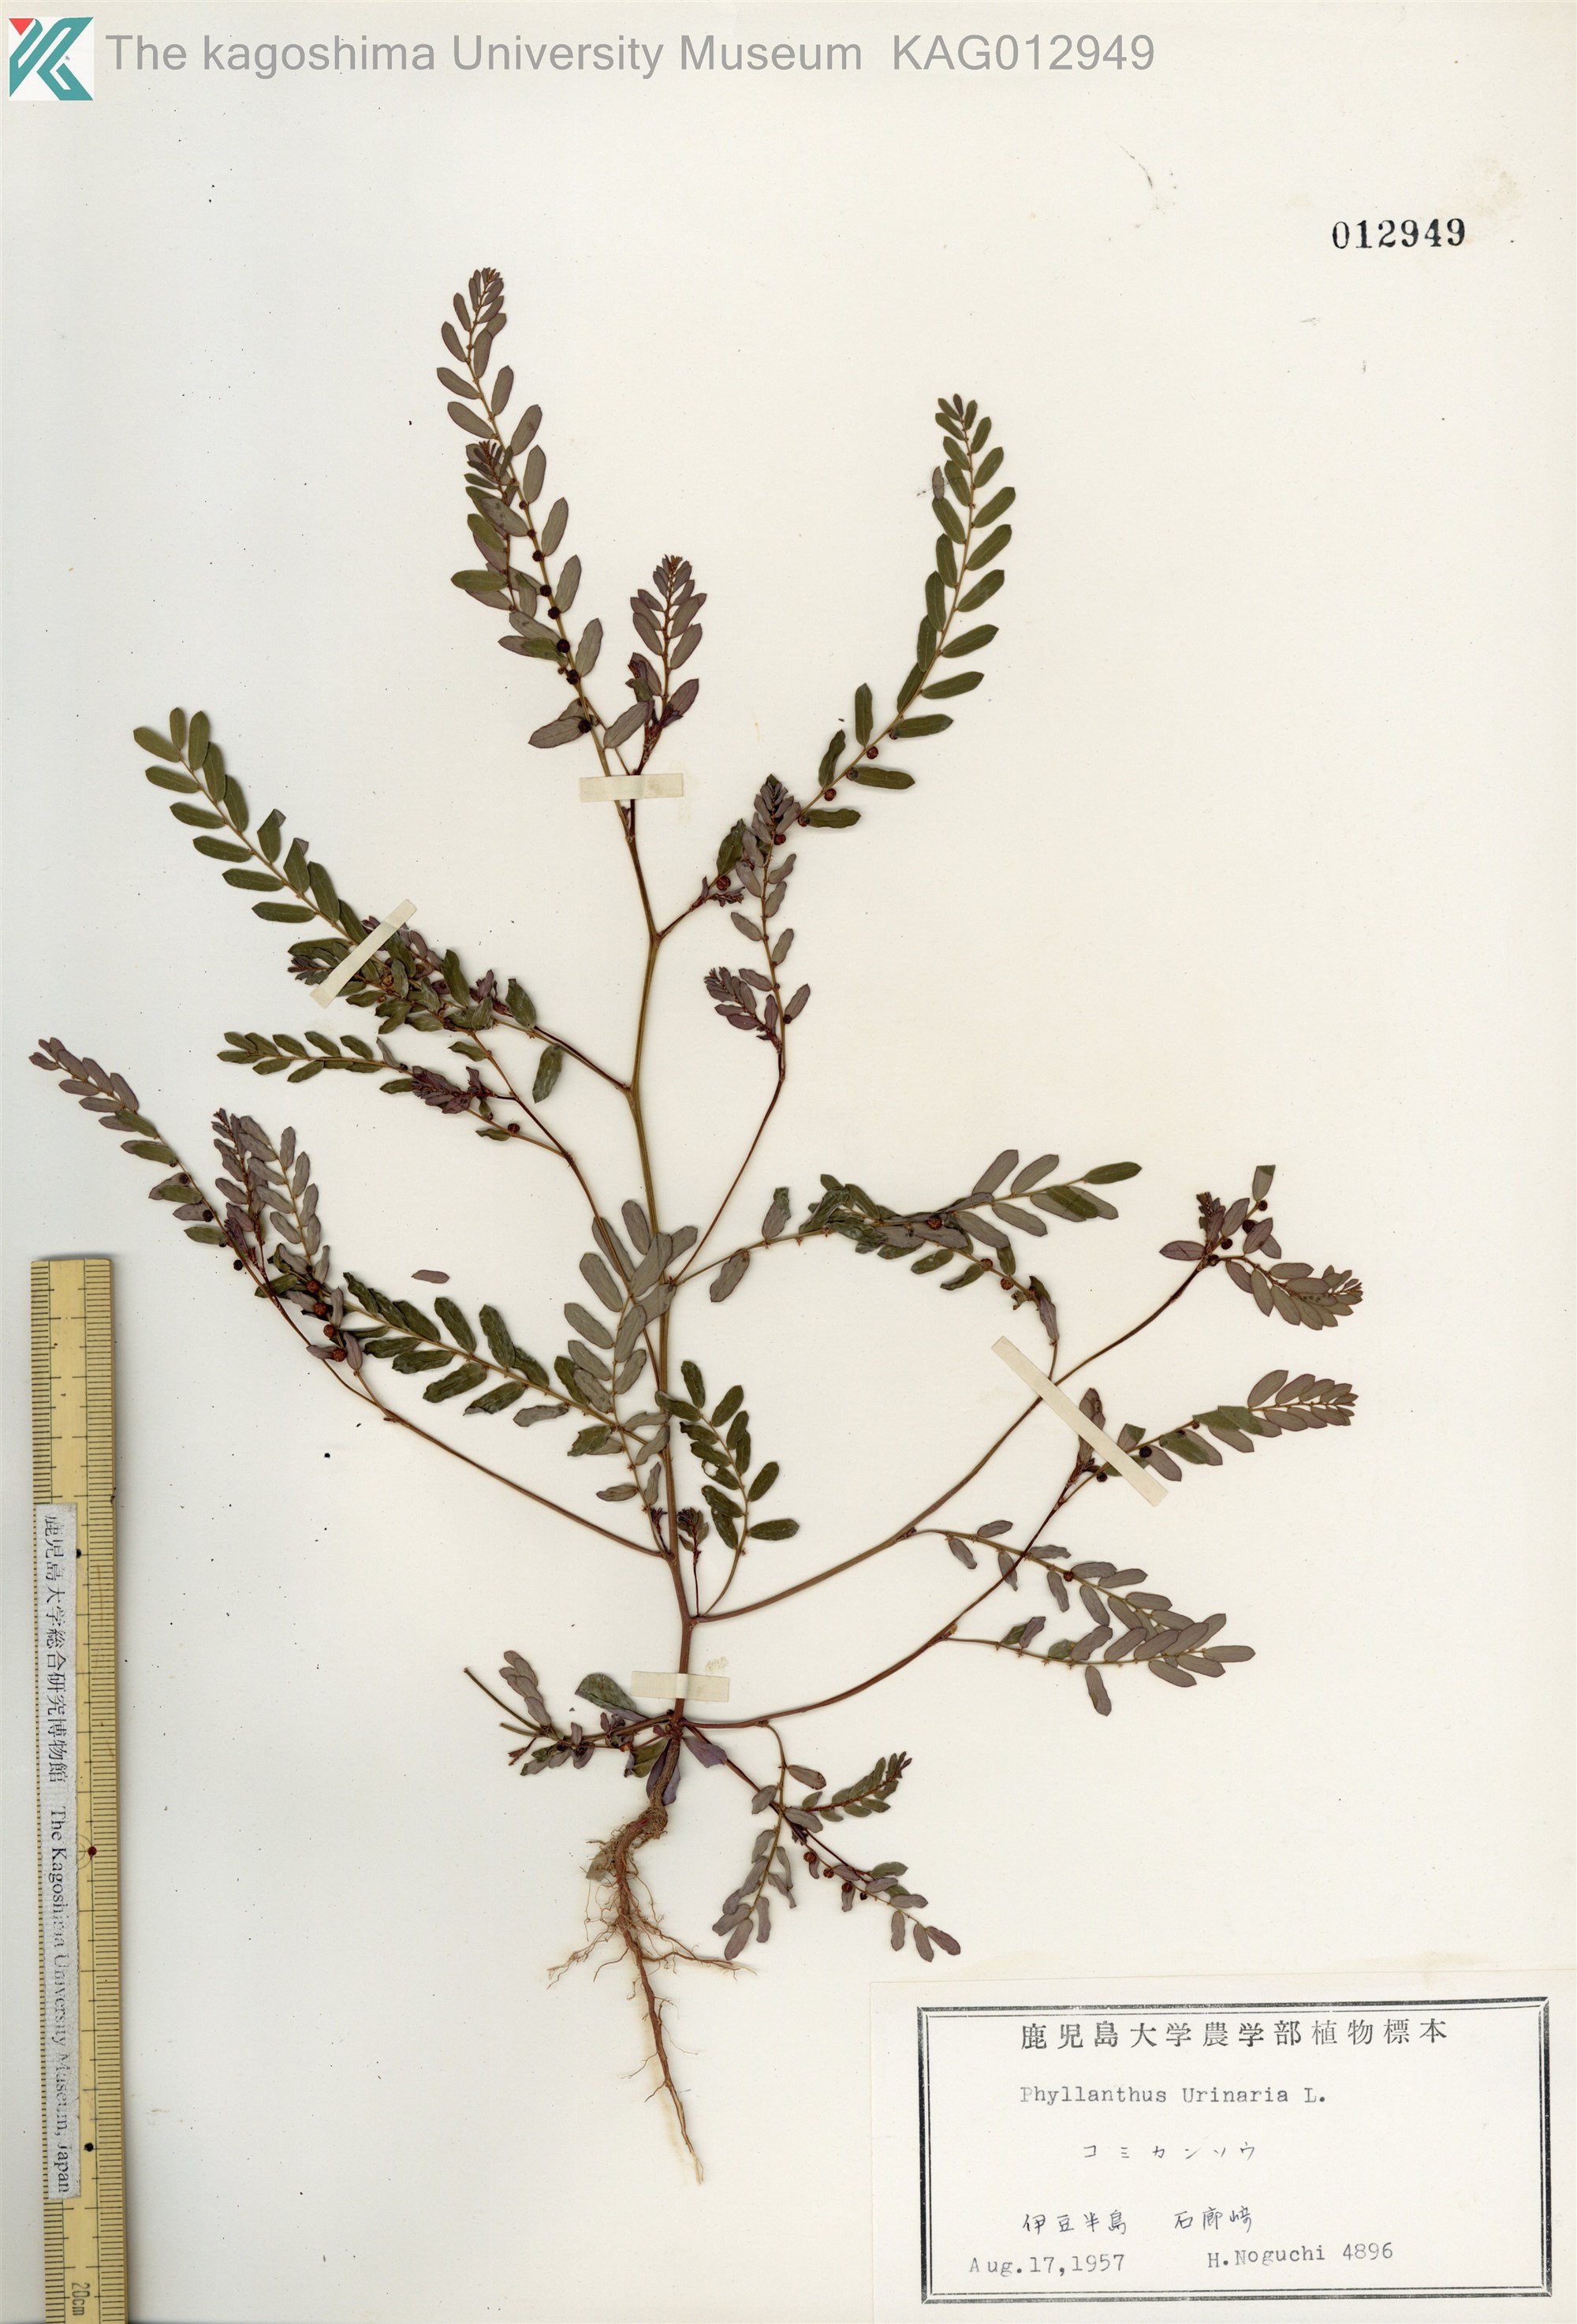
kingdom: Plantae
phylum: Tracheophyta
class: Magnoliopsida
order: Malpighiales
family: Phyllanthaceae
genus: Phyllanthus
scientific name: Phyllanthus urinaria
